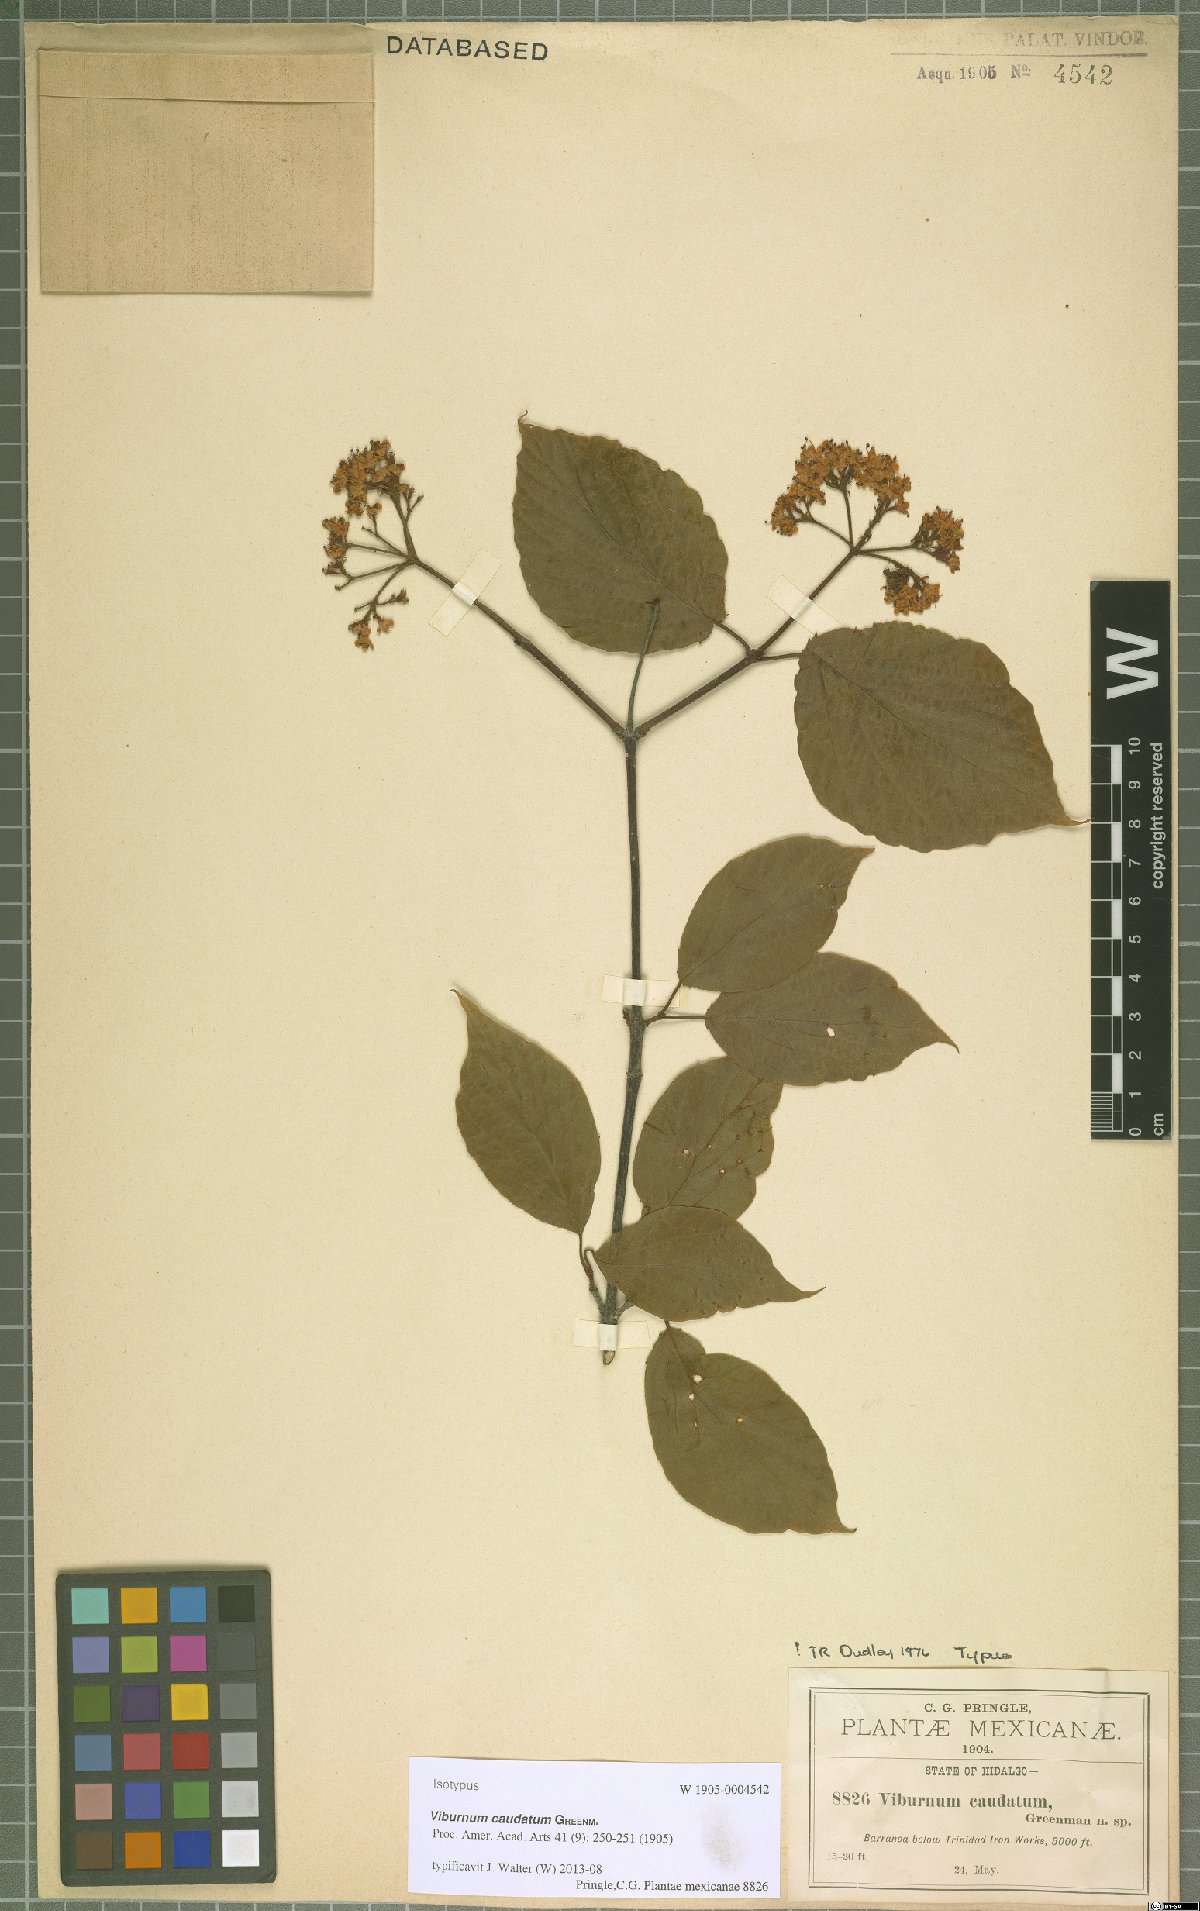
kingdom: Plantae
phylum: Tracheophyta
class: Magnoliopsida
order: Dipsacales
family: Viburnaceae
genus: Viburnum
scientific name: Viburnum caudatum
